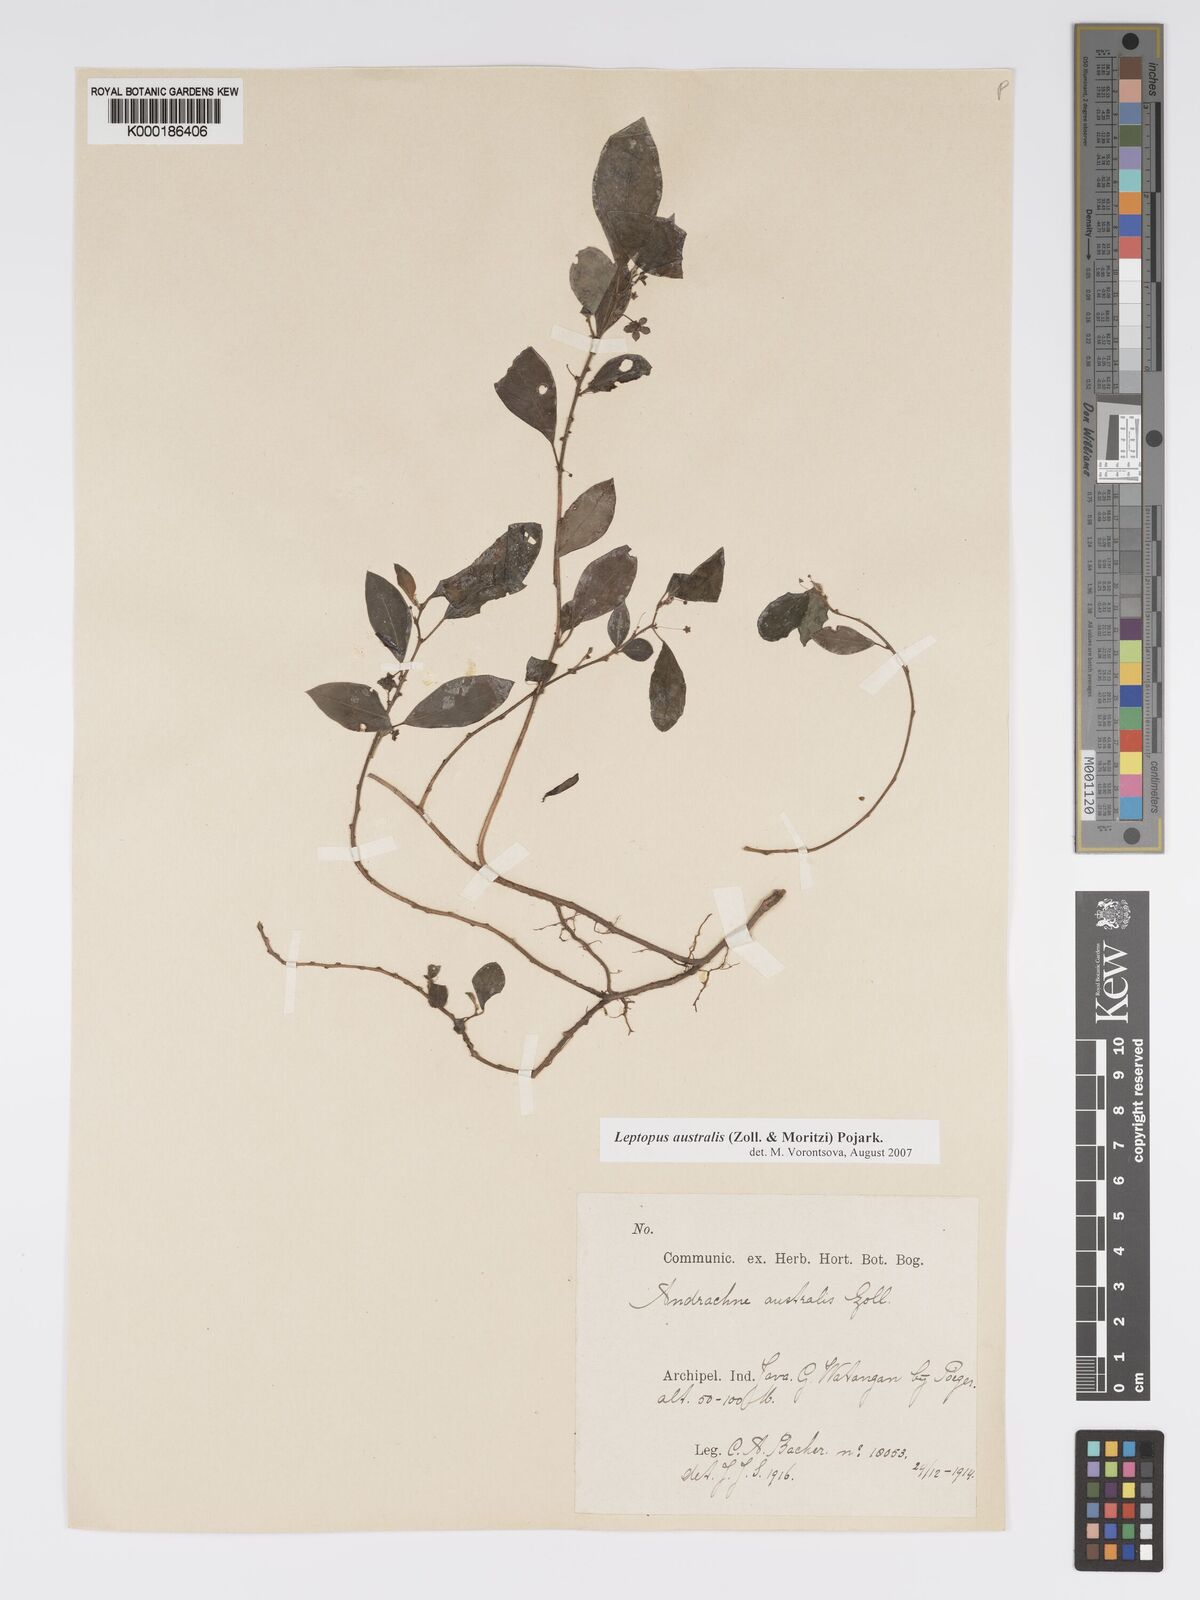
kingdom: Plantae
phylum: Tracheophyta
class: Magnoliopsida
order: Malpighiales
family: Phyllanthaceae
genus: Leptopus
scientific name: Leptopus australis
